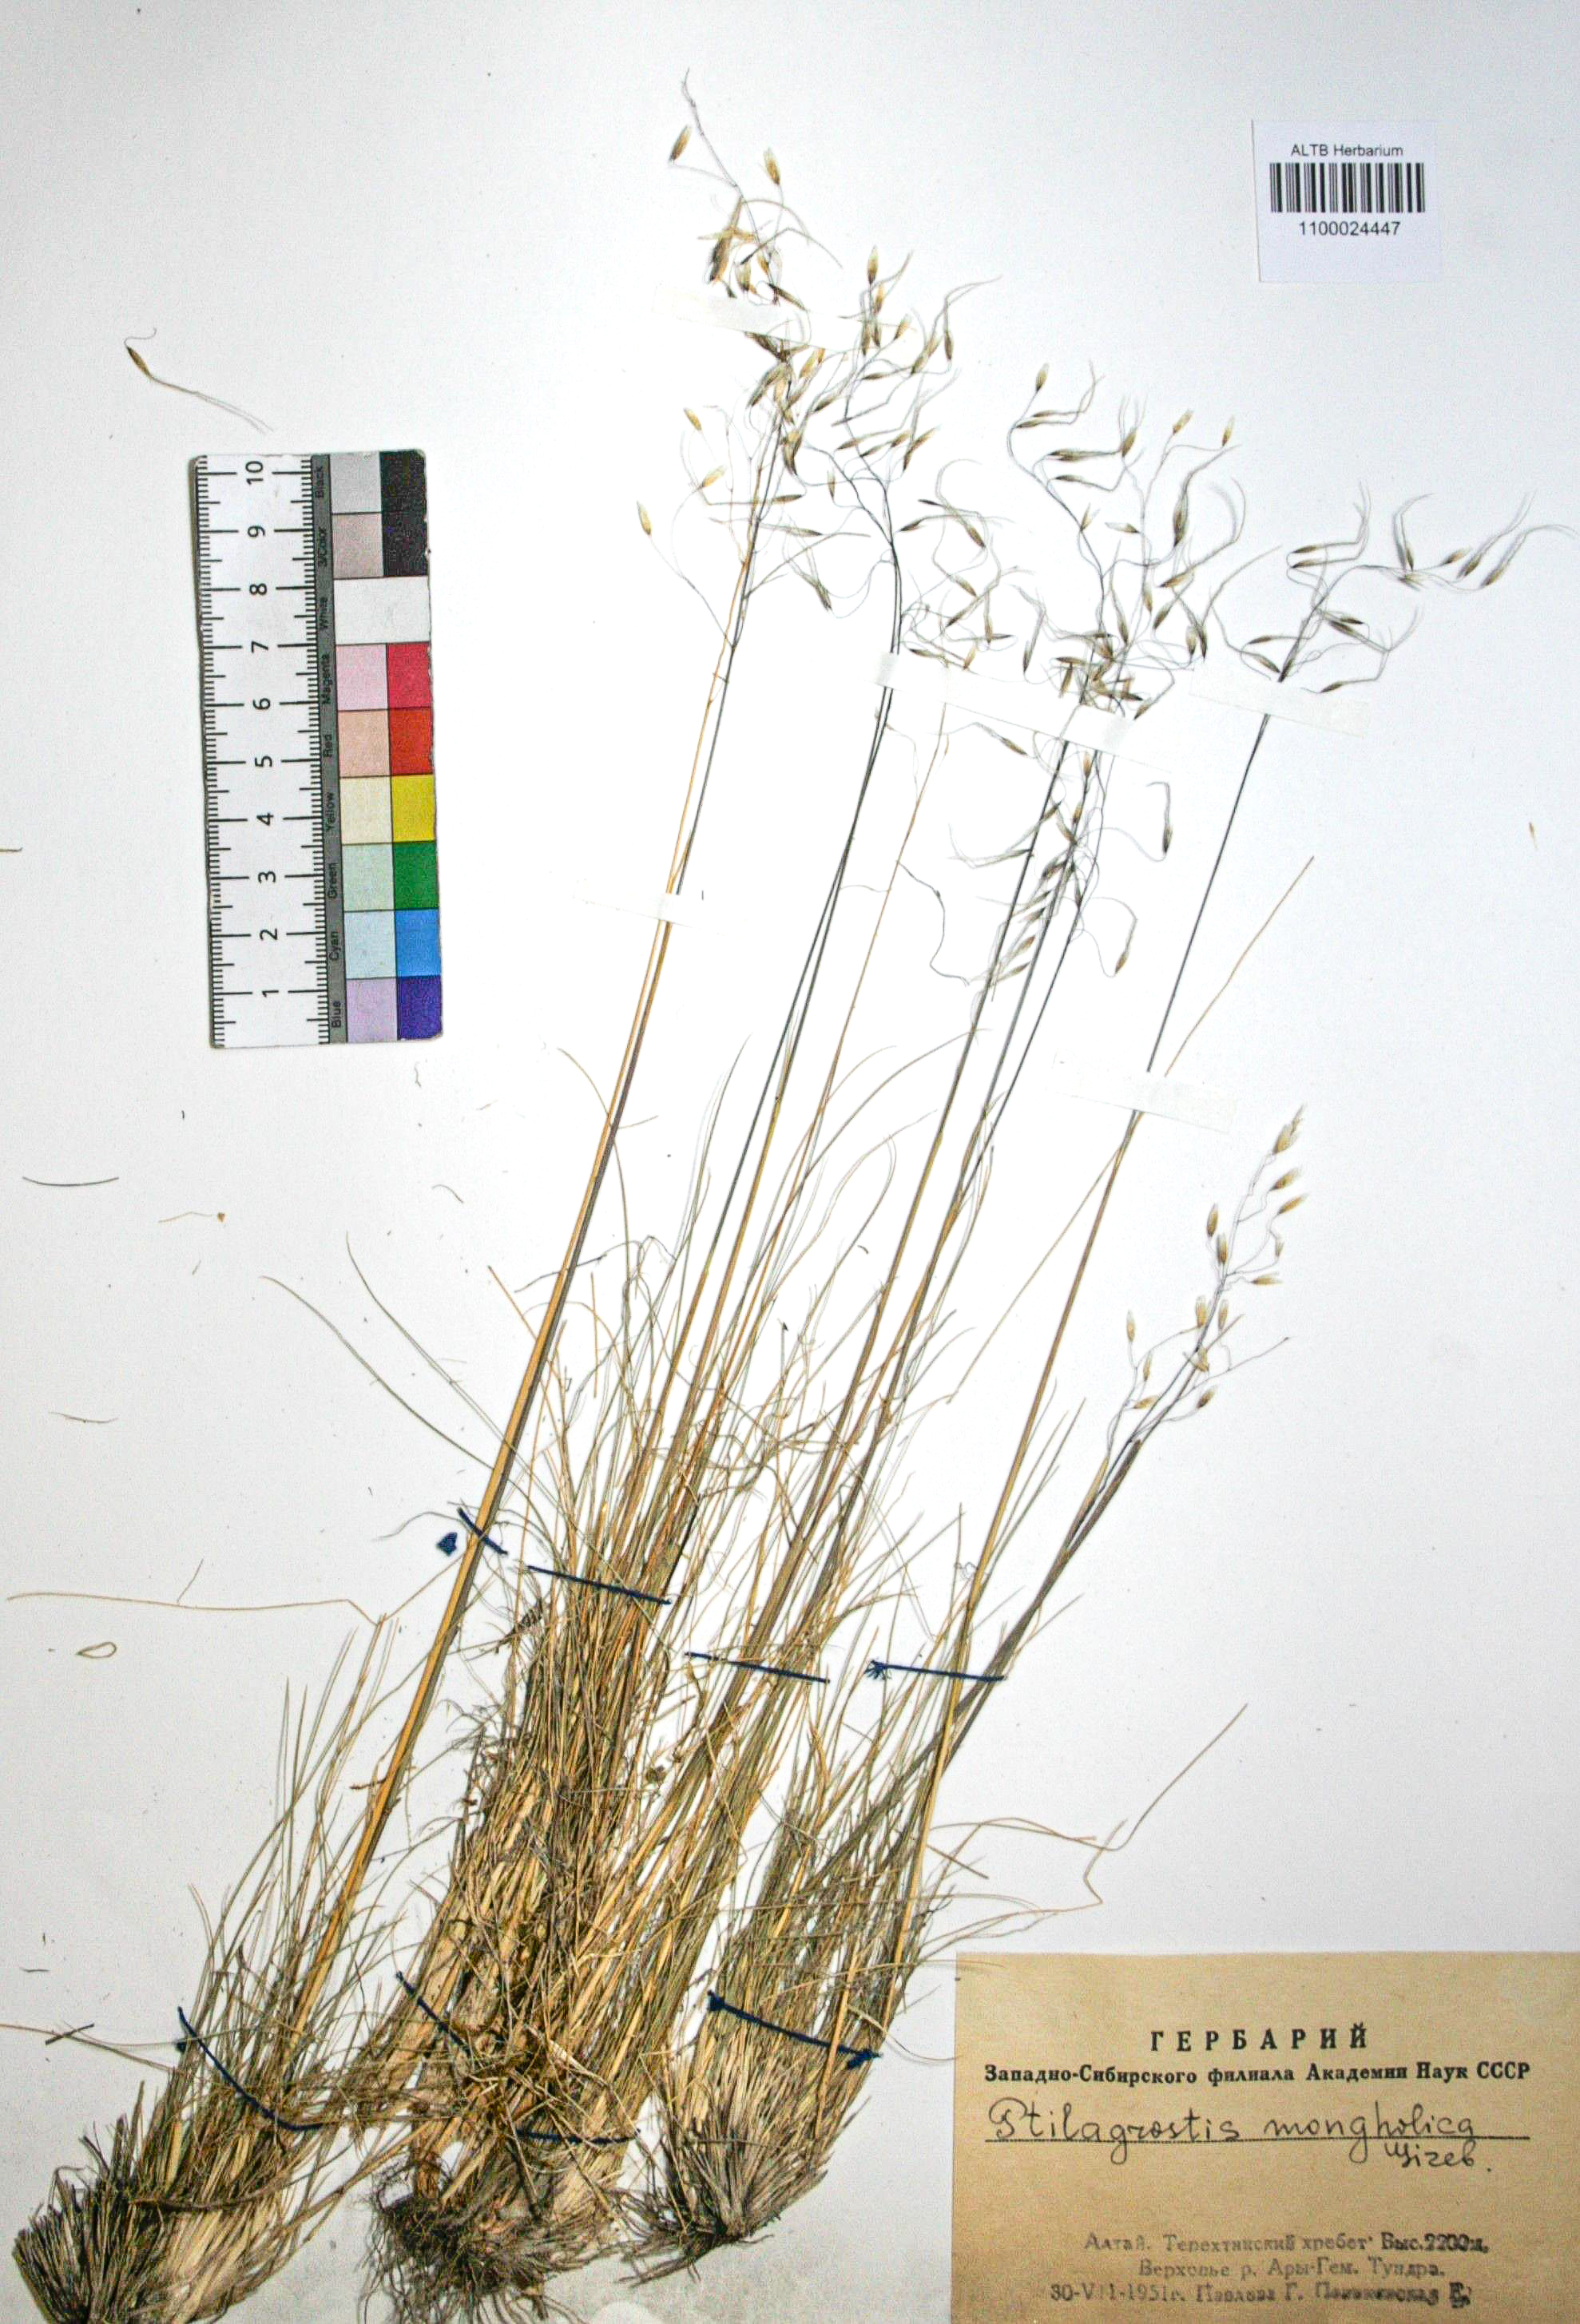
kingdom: Plantae
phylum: Tracheophyta
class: Liliopsida
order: Poales
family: Poaceae
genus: Ptilagrostis
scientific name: Ptilagrostis mongholica
